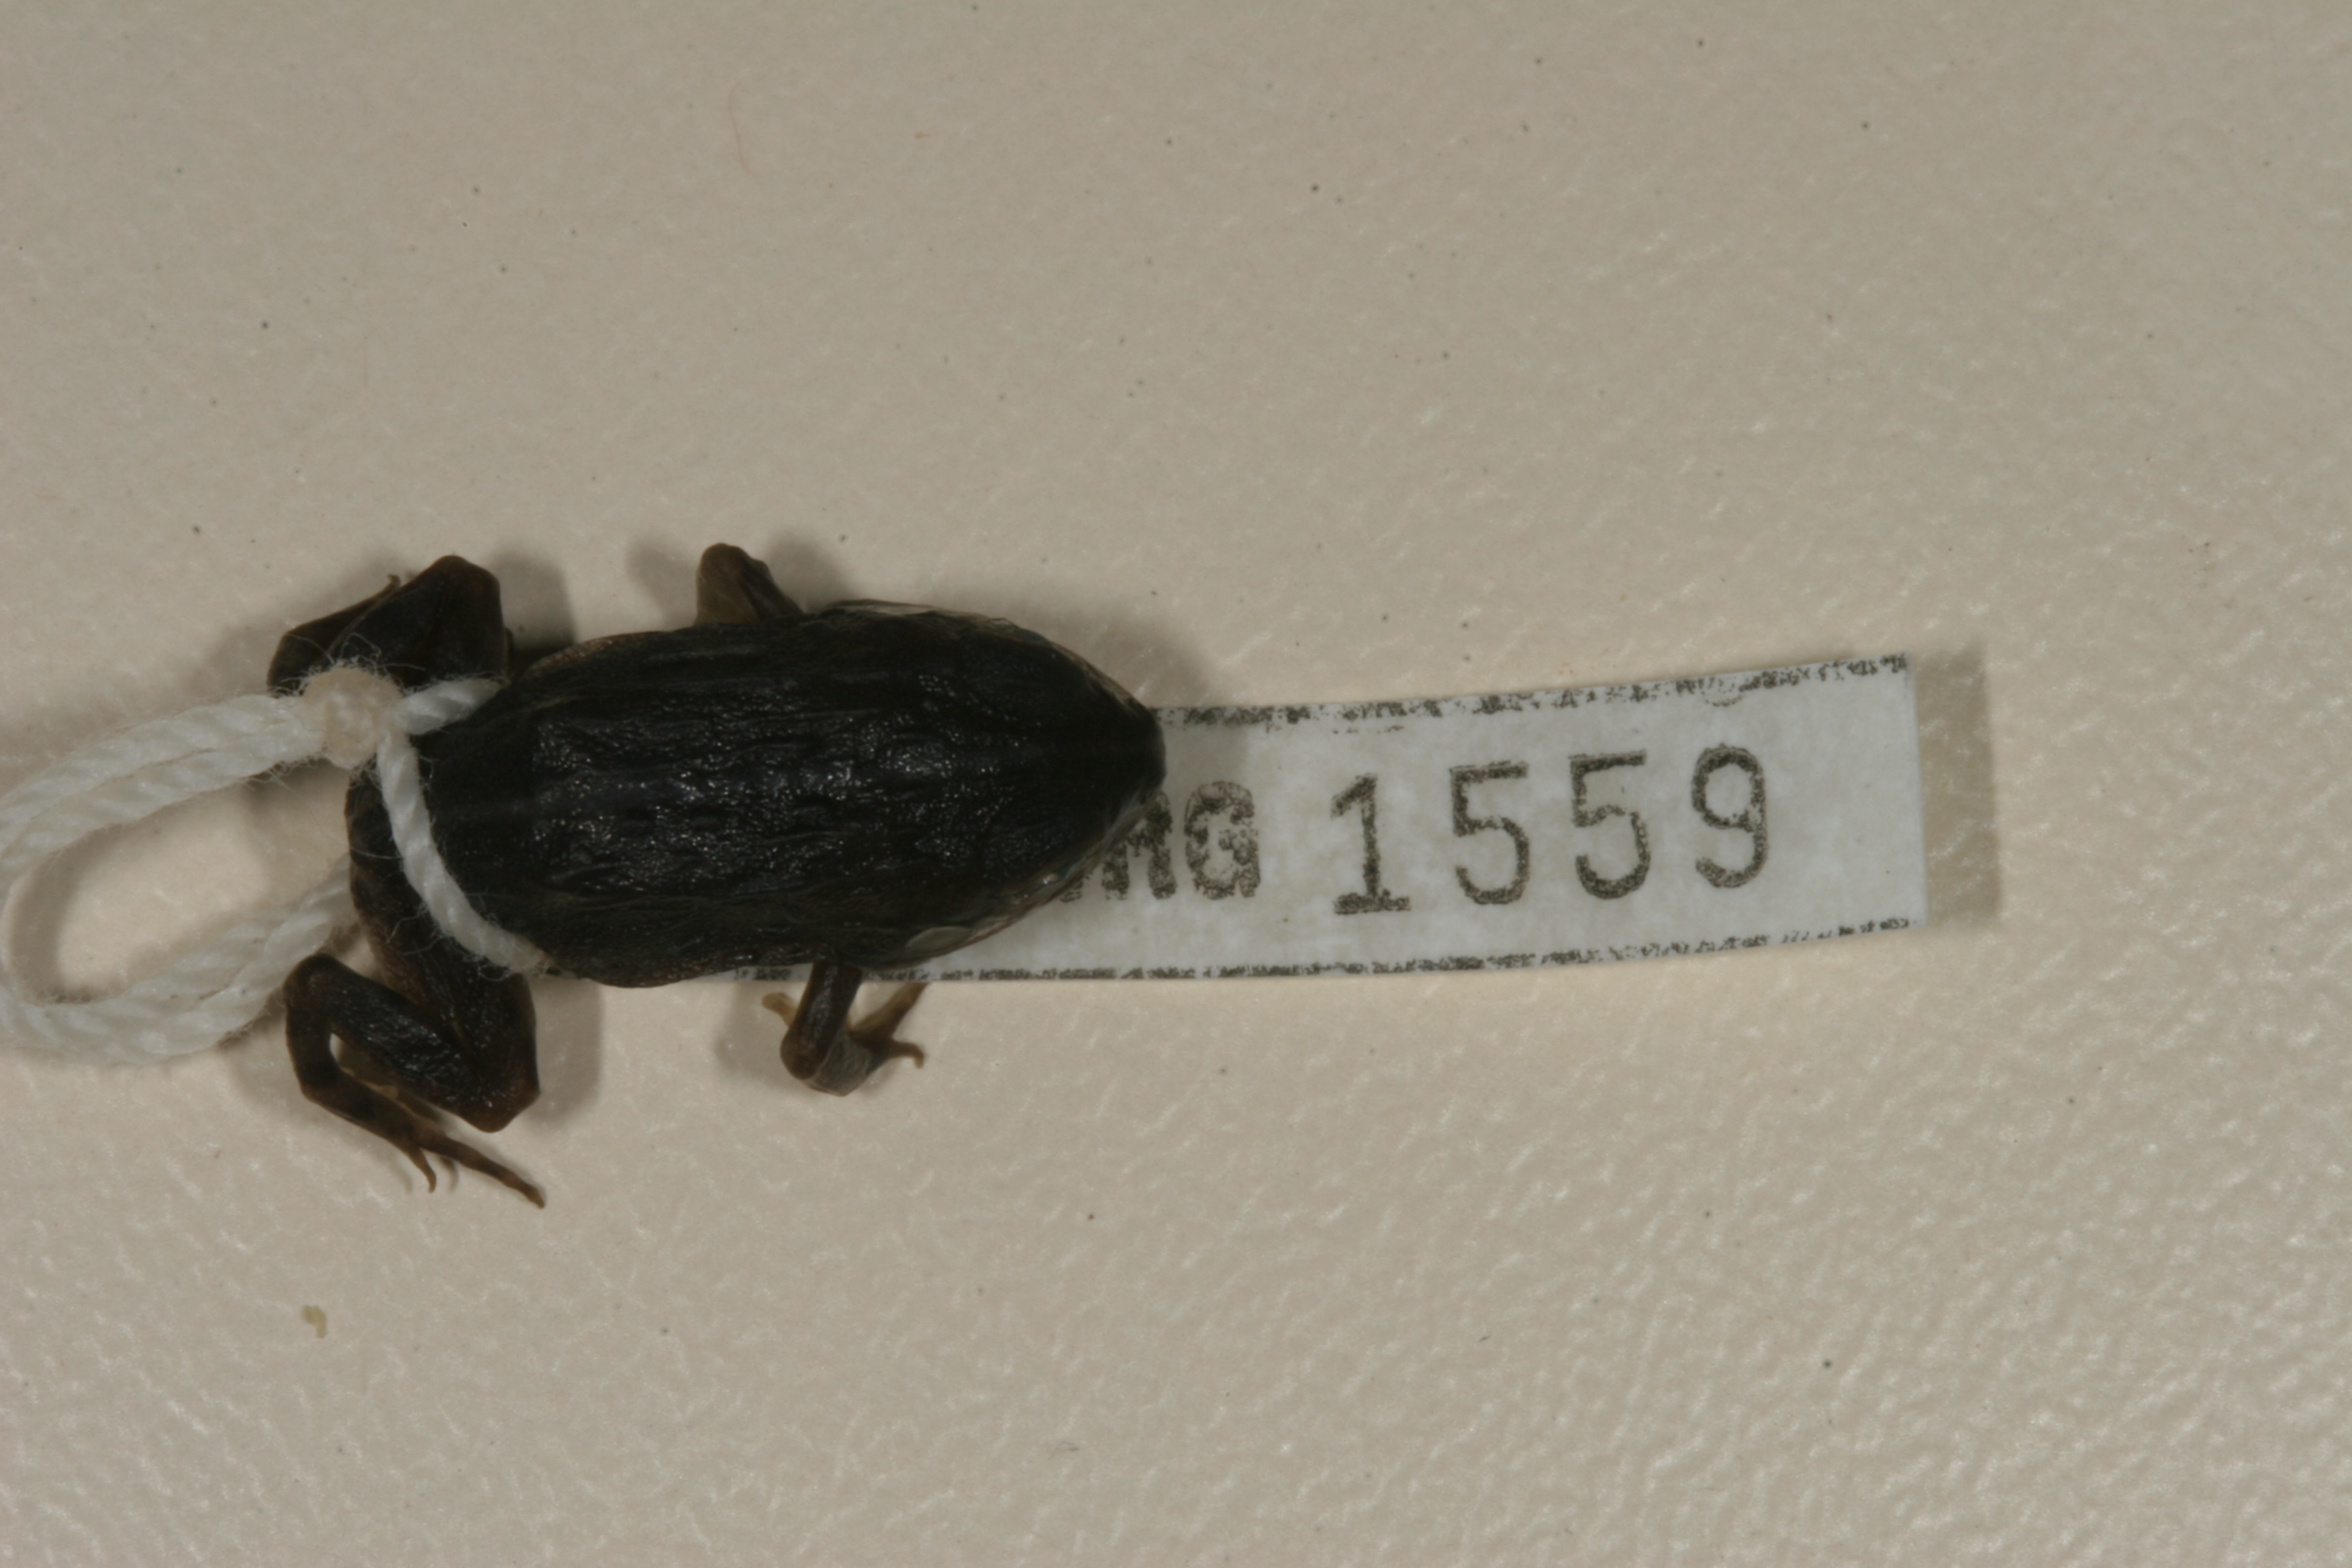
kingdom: Animalia
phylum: Chordata
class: Amphibia
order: Anura
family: Pyxicephalidae
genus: Pyxicephalus
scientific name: Pyxicephalus edulis
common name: Peter's bullfrog
